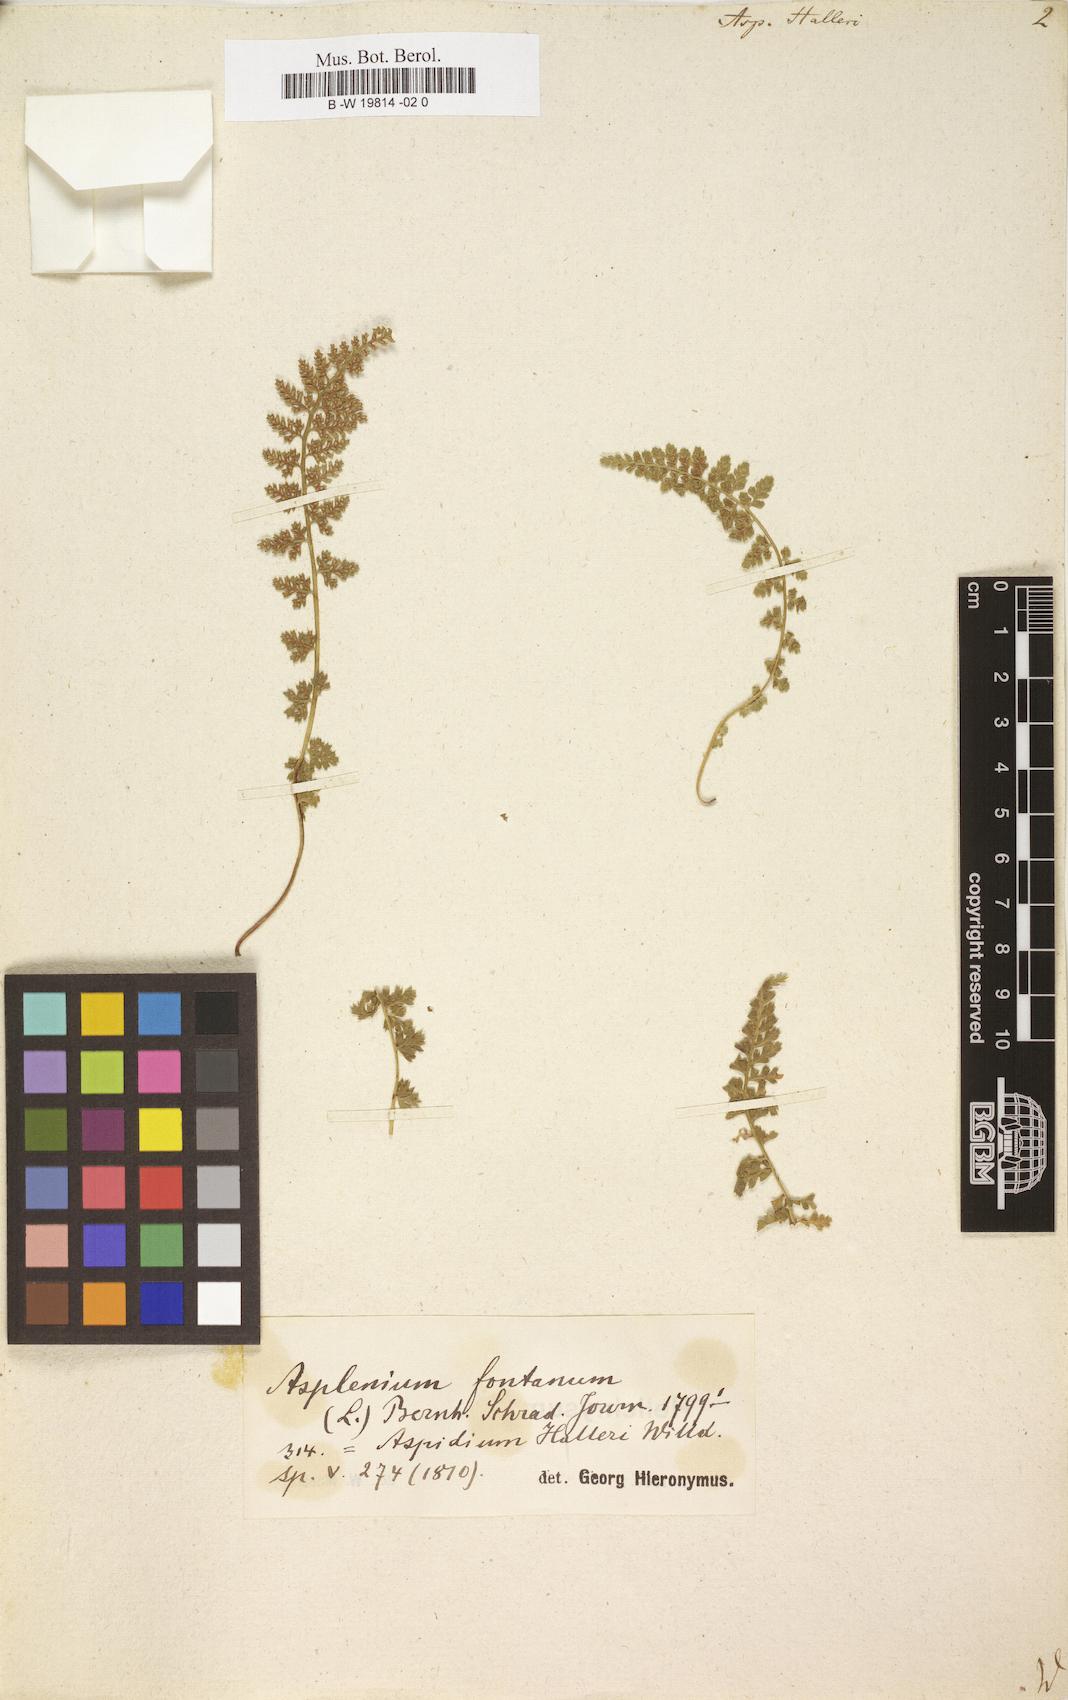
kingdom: Plantae
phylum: Tracheophyta
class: Polypodiopsida
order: Polypodiales
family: Aspleniaceae
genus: Asplenium
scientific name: Asplenium fontanum
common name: Fountain spleenwort
